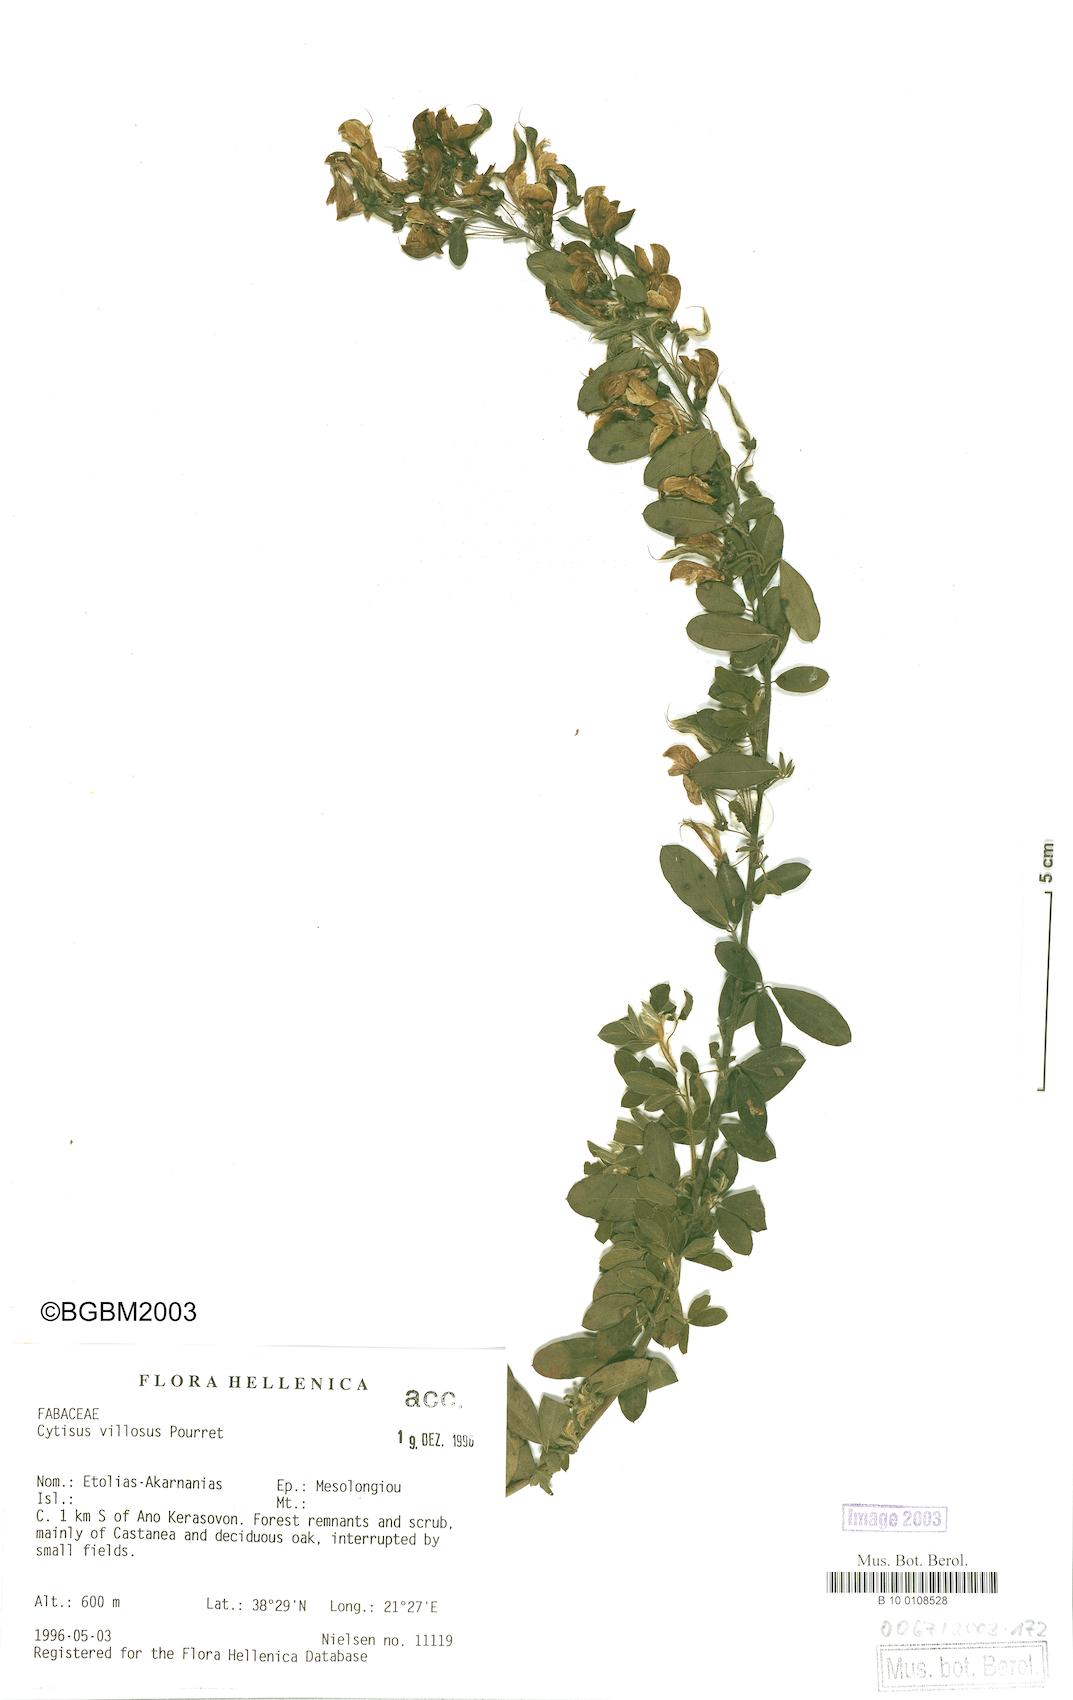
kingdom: Plantae
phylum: Tracheophyta
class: Magnoliopsida
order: Fabales
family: Fabaceae
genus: Cytisus
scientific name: Cytisus villosus
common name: Hairybroom
